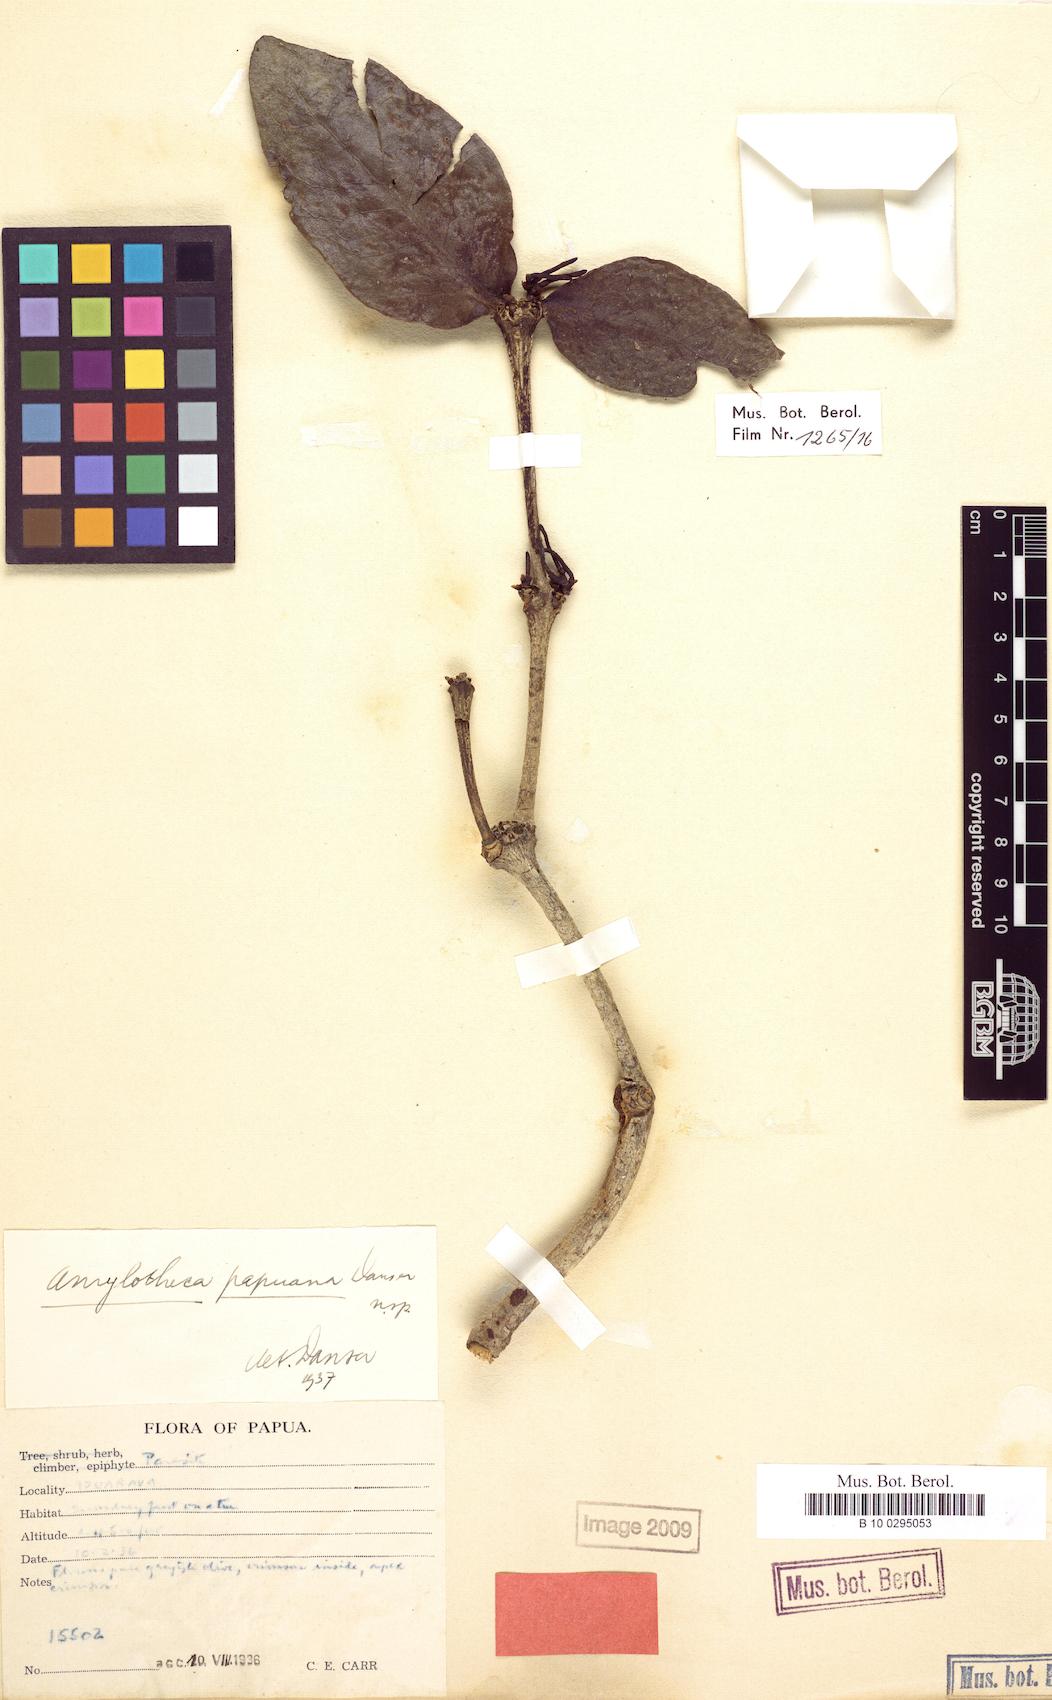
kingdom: Plantae
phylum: Tracheophyta
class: Magnoliopsida
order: Santalales
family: Loranthaceae
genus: Cyne
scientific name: Cyne papuana
